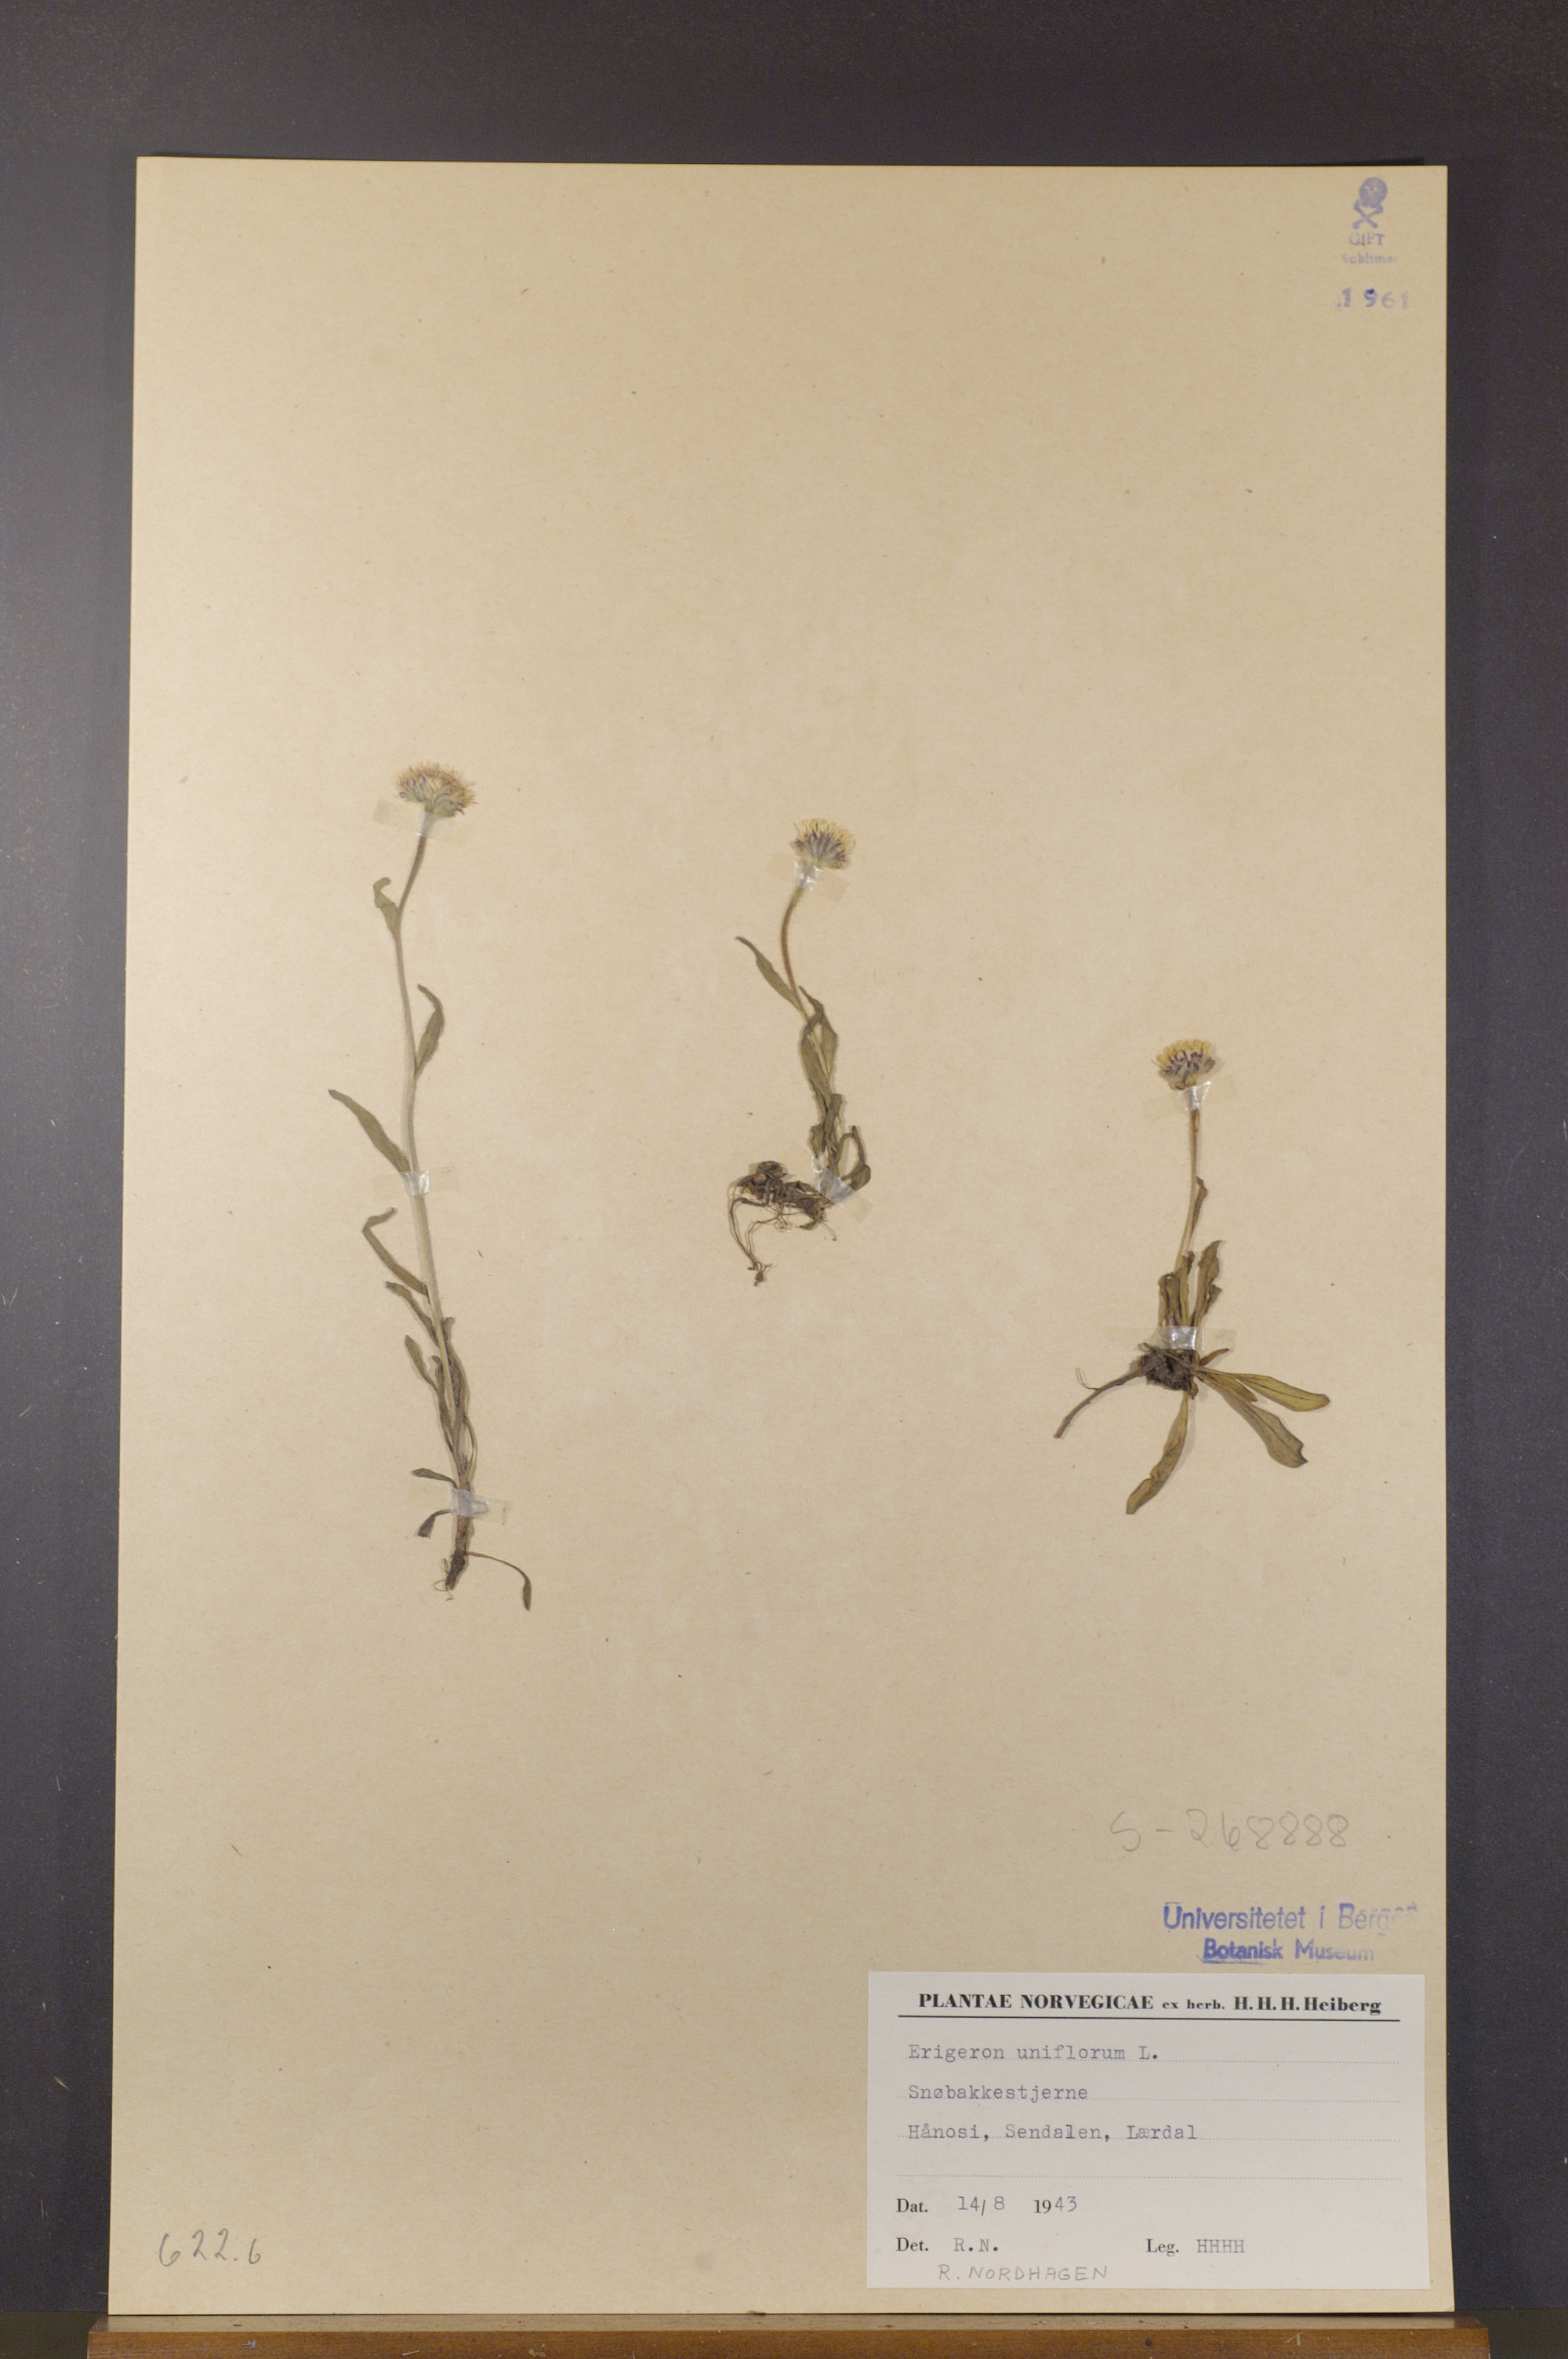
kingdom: Plantae
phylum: Tracheophyta
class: Magnoliopsida
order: Asterales
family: Asteraceae
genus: Erigeron
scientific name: Erigeron uniflorus
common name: Northern daisy
